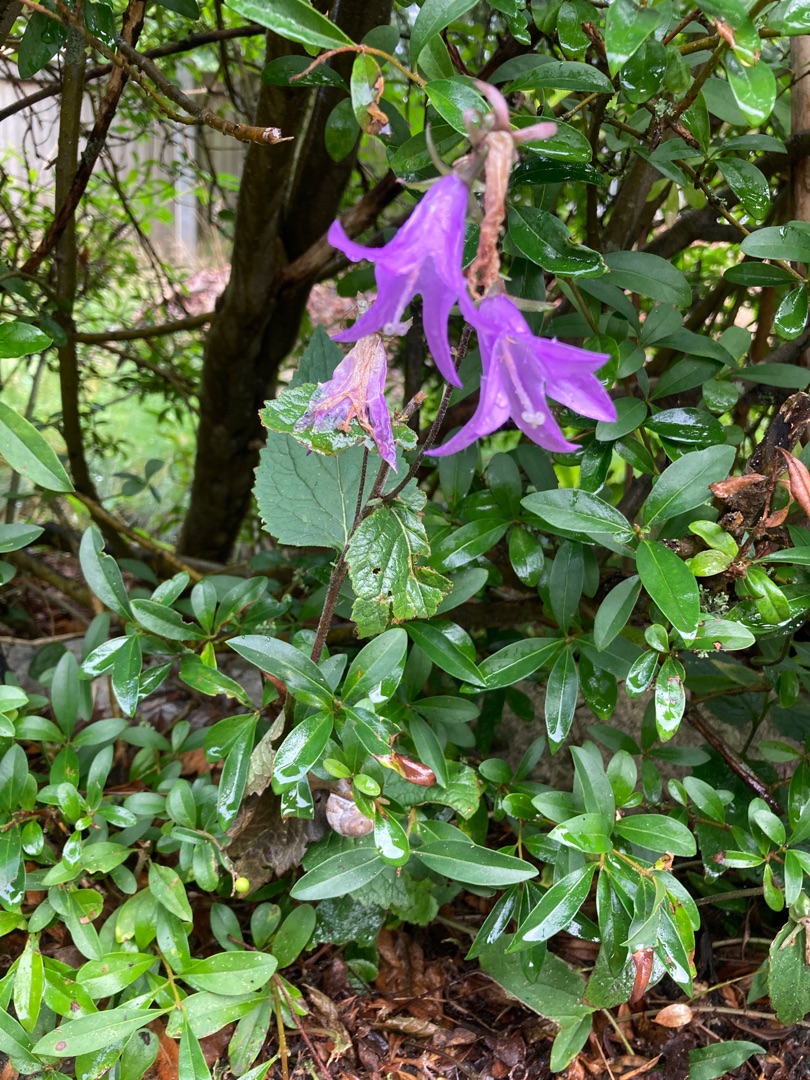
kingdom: Plantae
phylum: Tracheophyta
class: Magnoliopsida
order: Asterales
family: Campanulaceae
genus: Campanula
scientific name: Campanula rapunculoides
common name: Ensidig klokke
